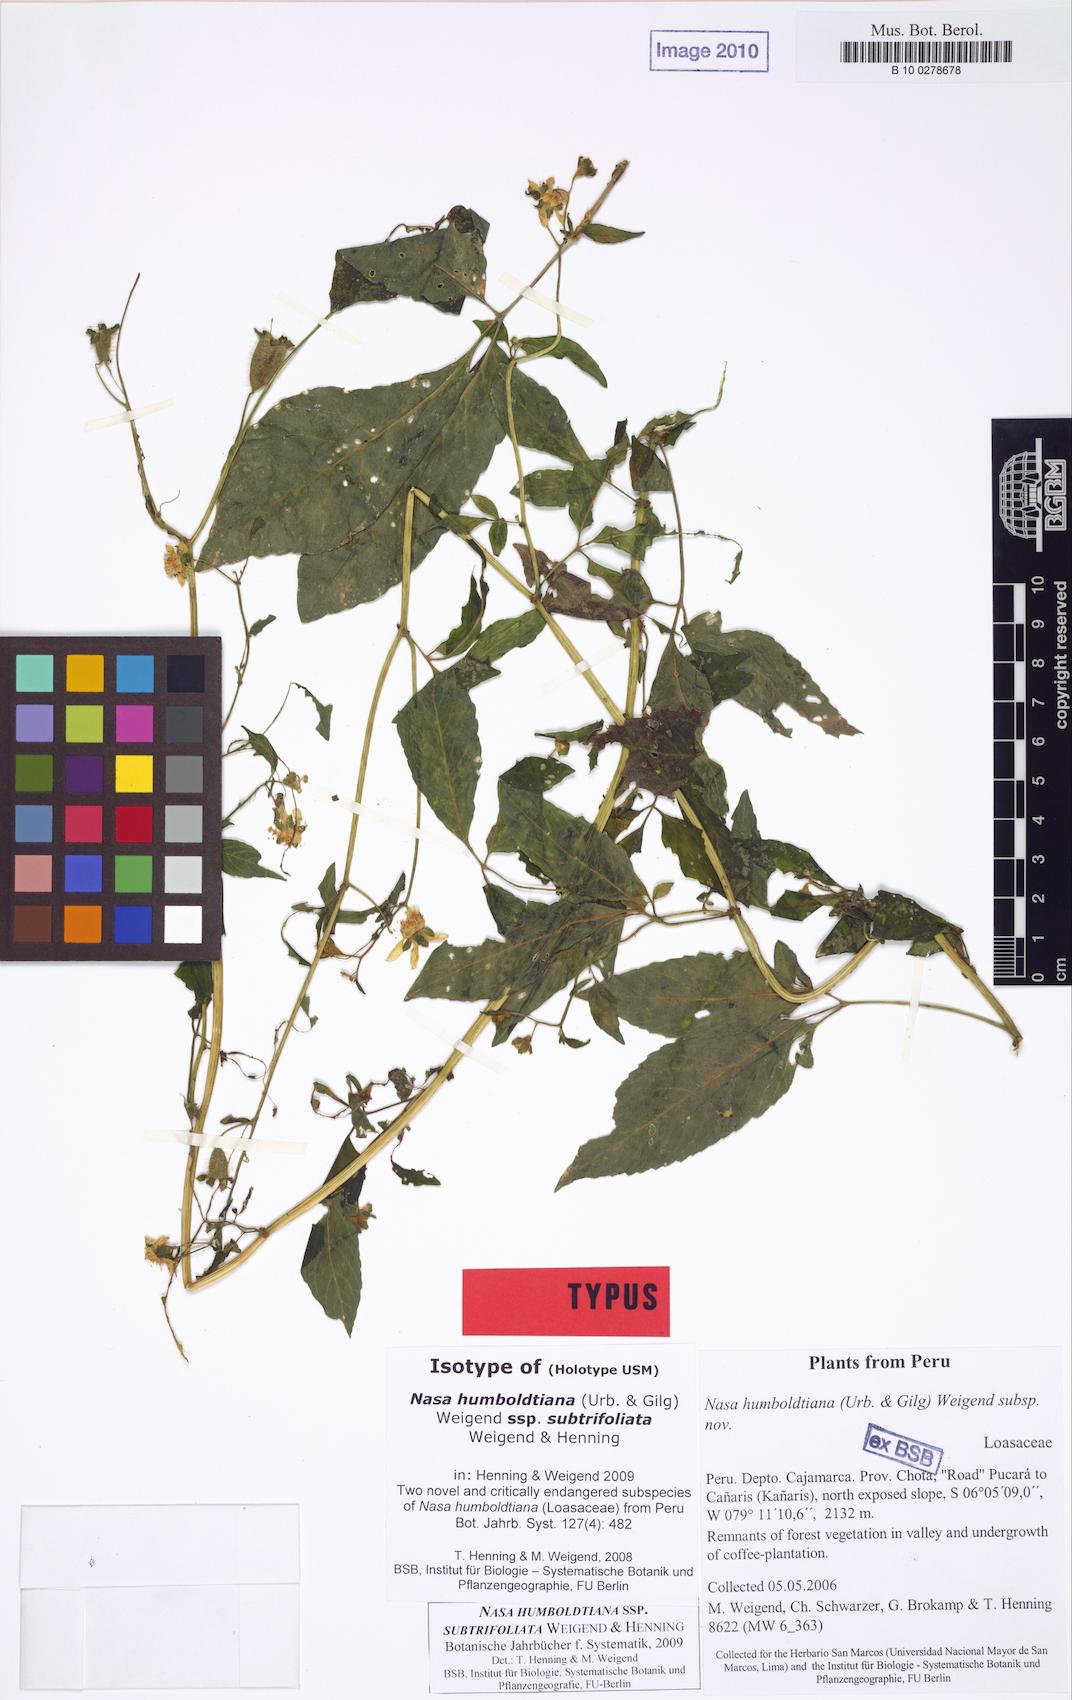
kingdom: Plantae
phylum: Tracheophyta
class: Magnoliopsida
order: Cornales
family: Loasaceae
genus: Nasa
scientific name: Nasa humboldtiana
